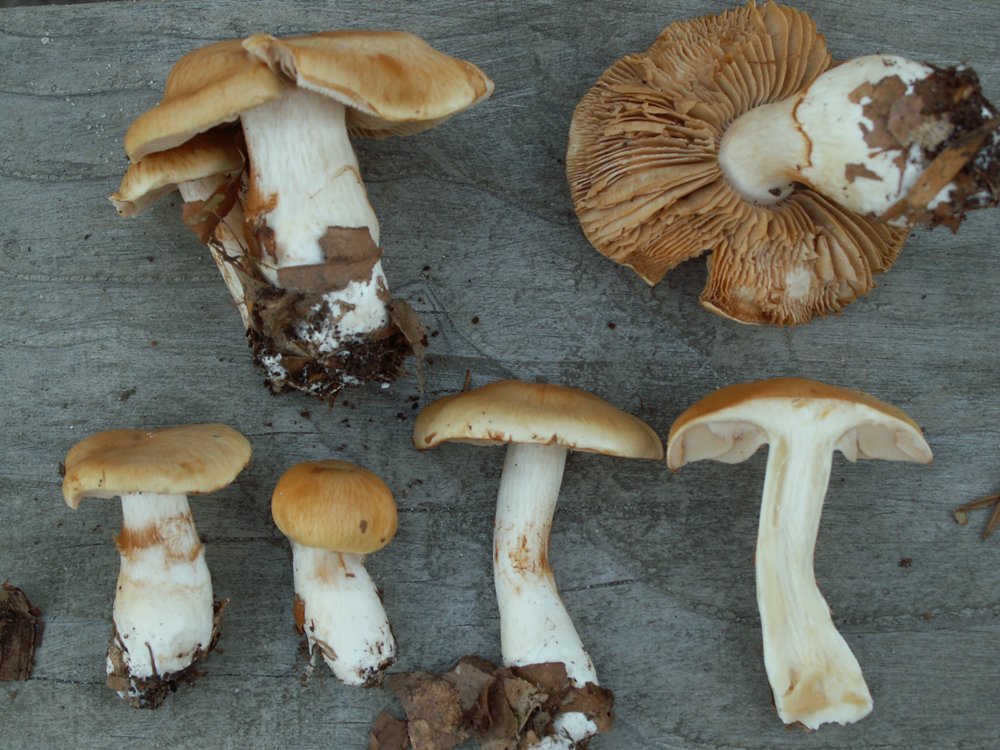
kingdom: Fungi
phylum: Basidiomycota
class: Agaricomycetes
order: Agaricales
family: Cortinariaceae
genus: Thaxterogaster
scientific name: Thaxterogaster emollitus
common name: besk slørhat
